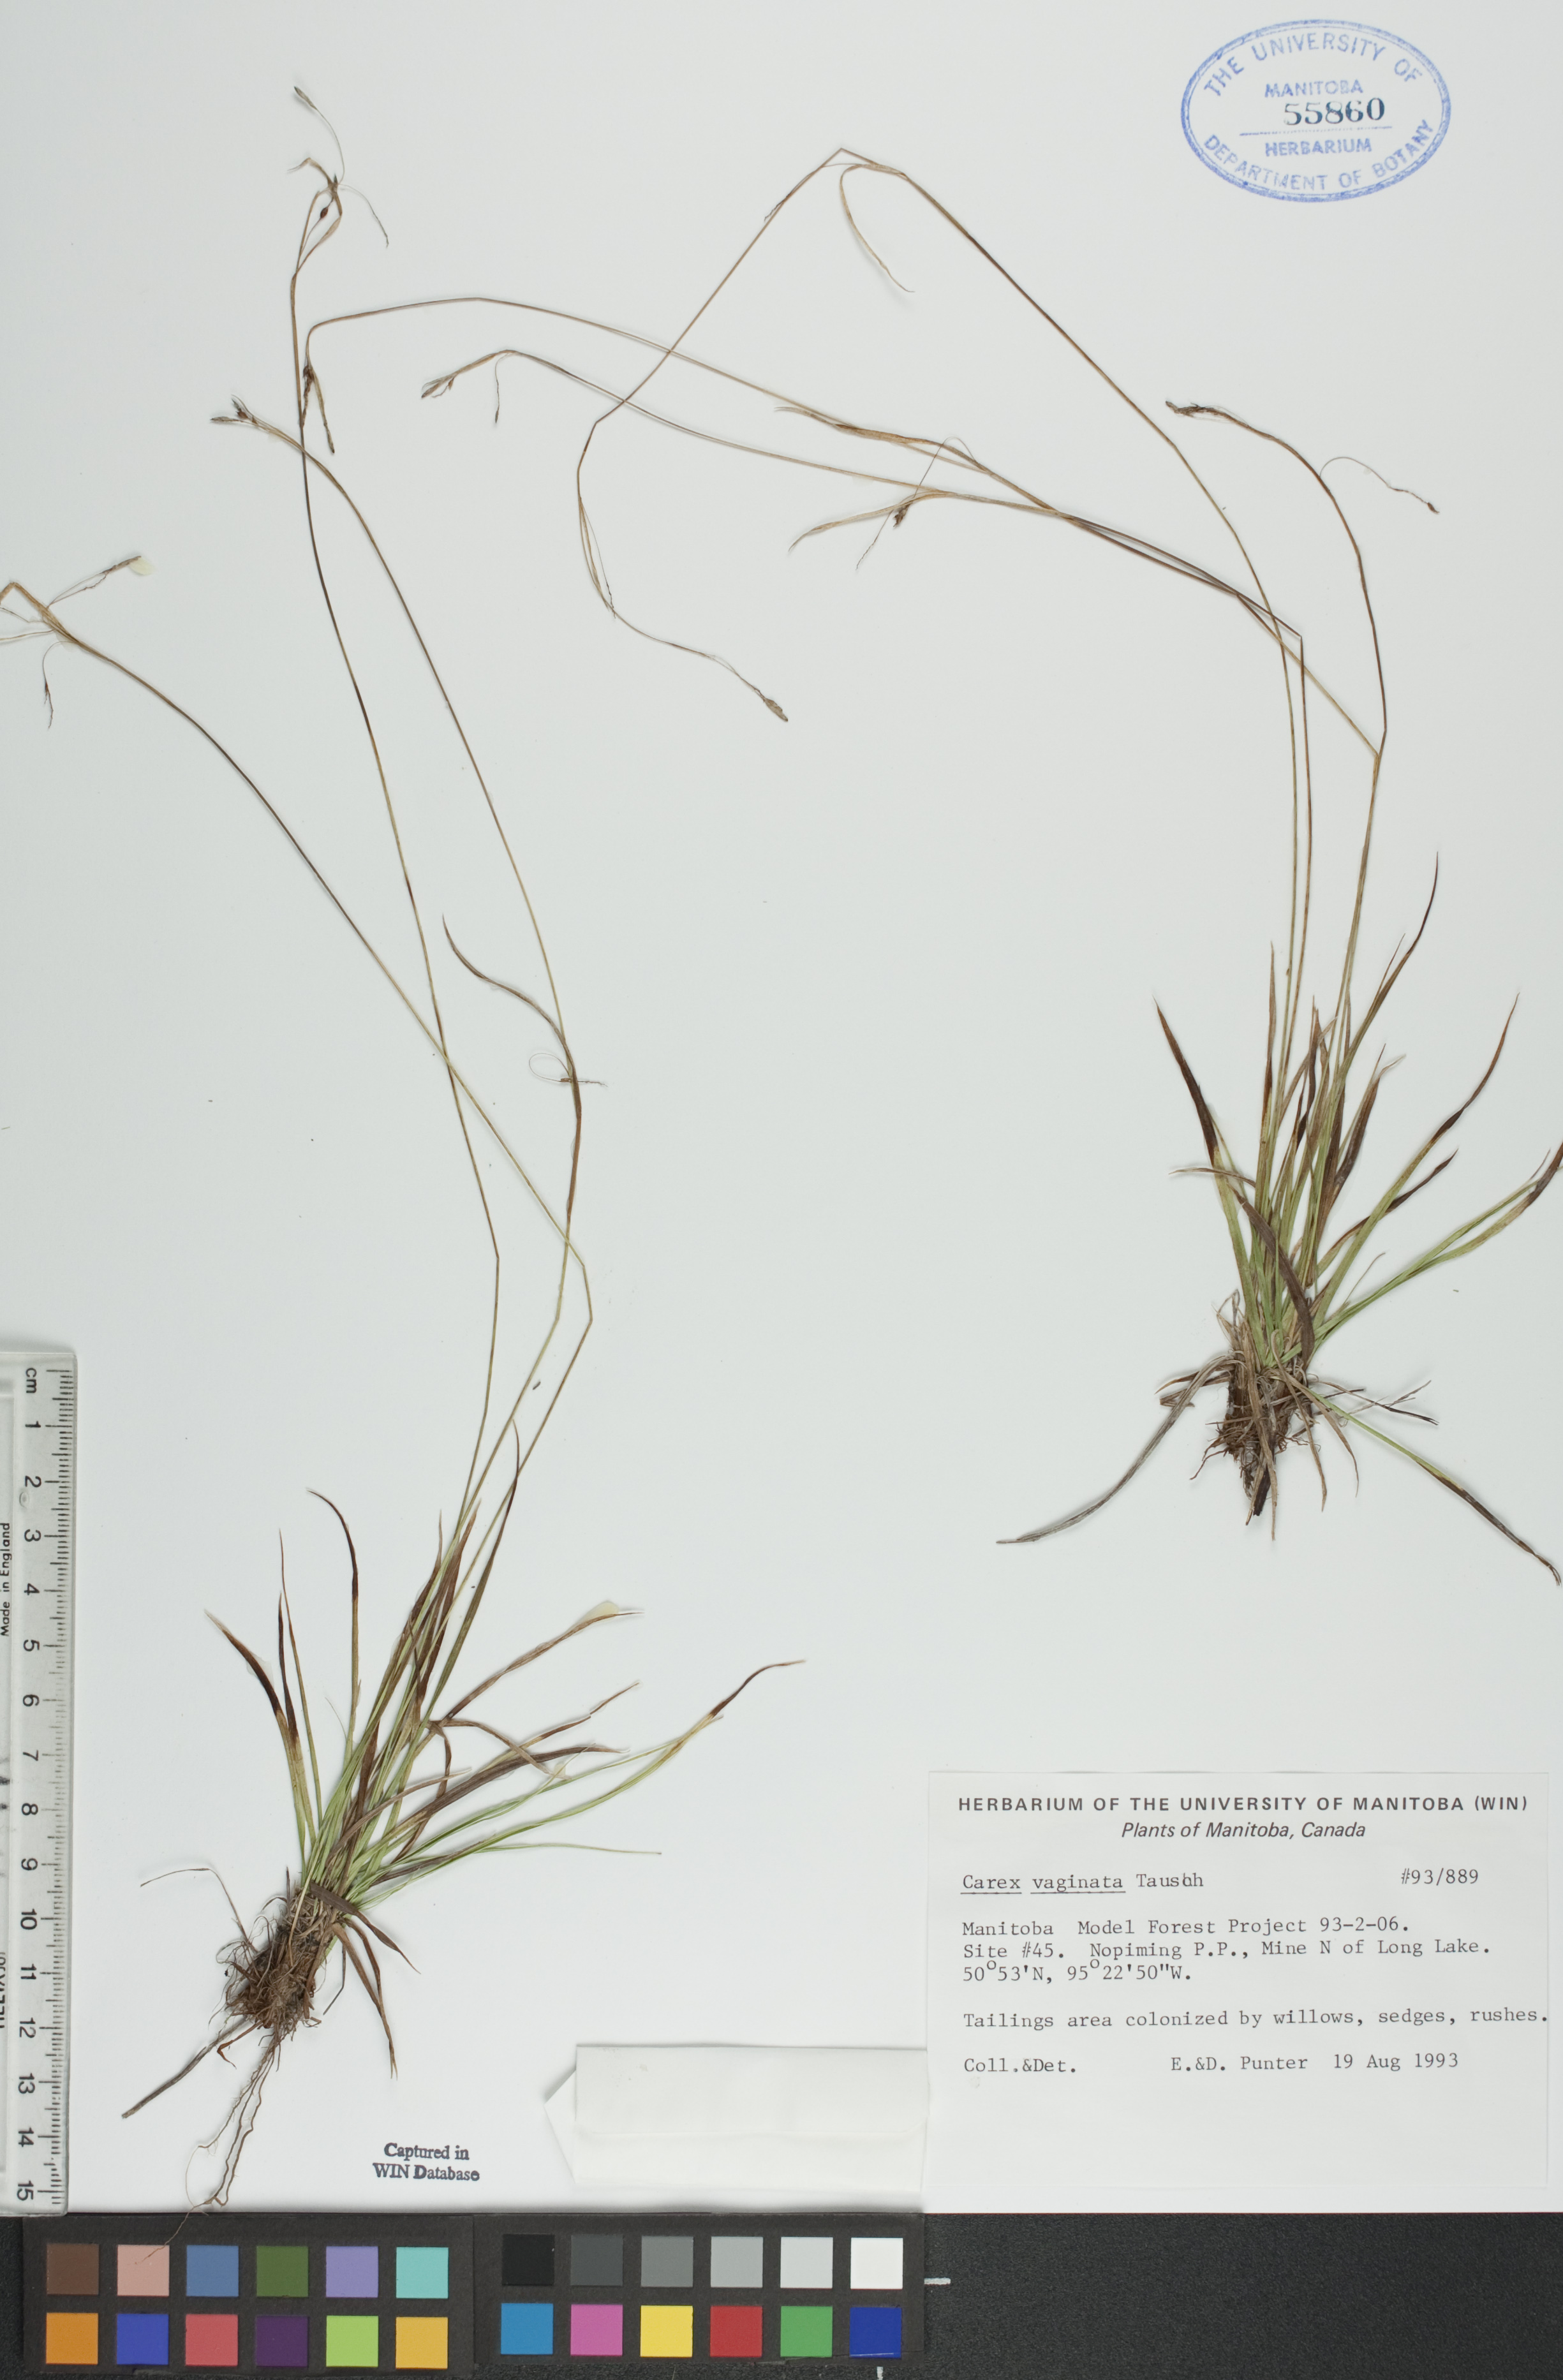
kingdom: Plantae
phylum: Tracheophyta
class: Liliopsida
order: Poales
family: Cyperaceae
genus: Carex
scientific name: Carex vaginata
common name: Sheathed sedge
